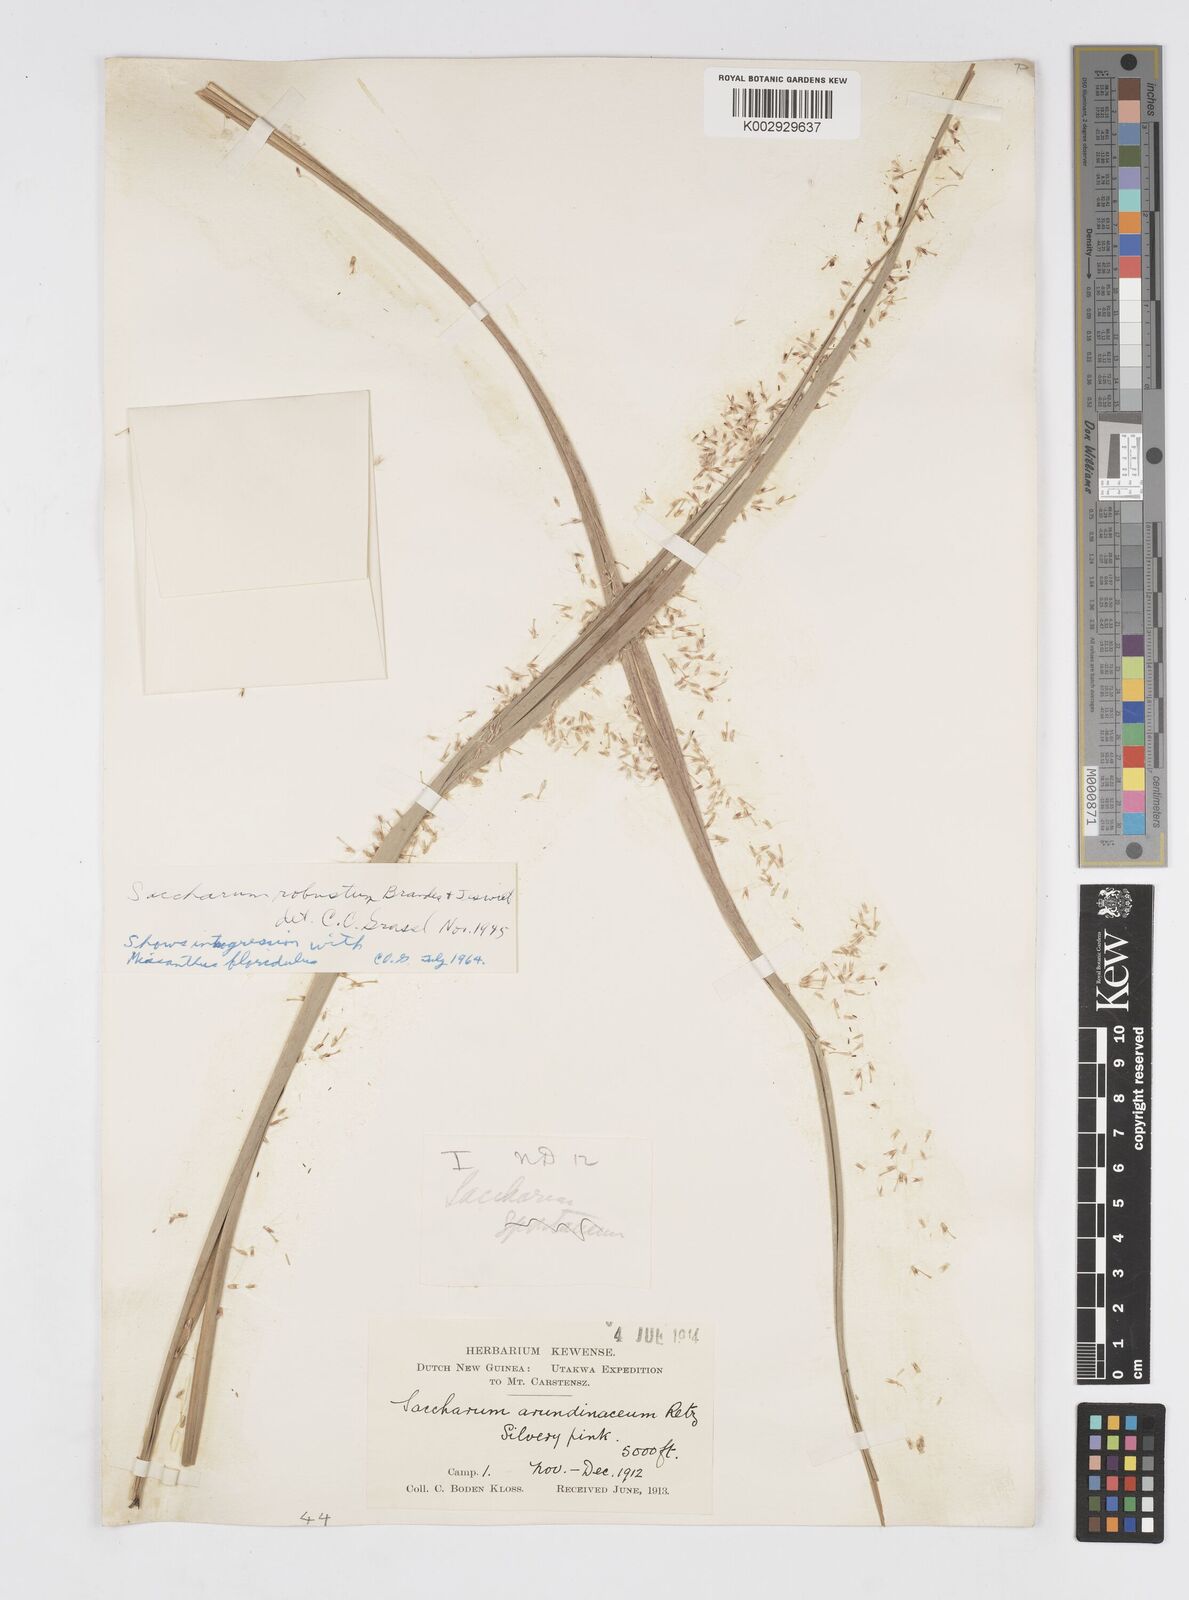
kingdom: Plantae
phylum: Tracheophyta
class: Liliopsida
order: Poales
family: Poaceae
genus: Saccharum
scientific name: Saccharum robustum
